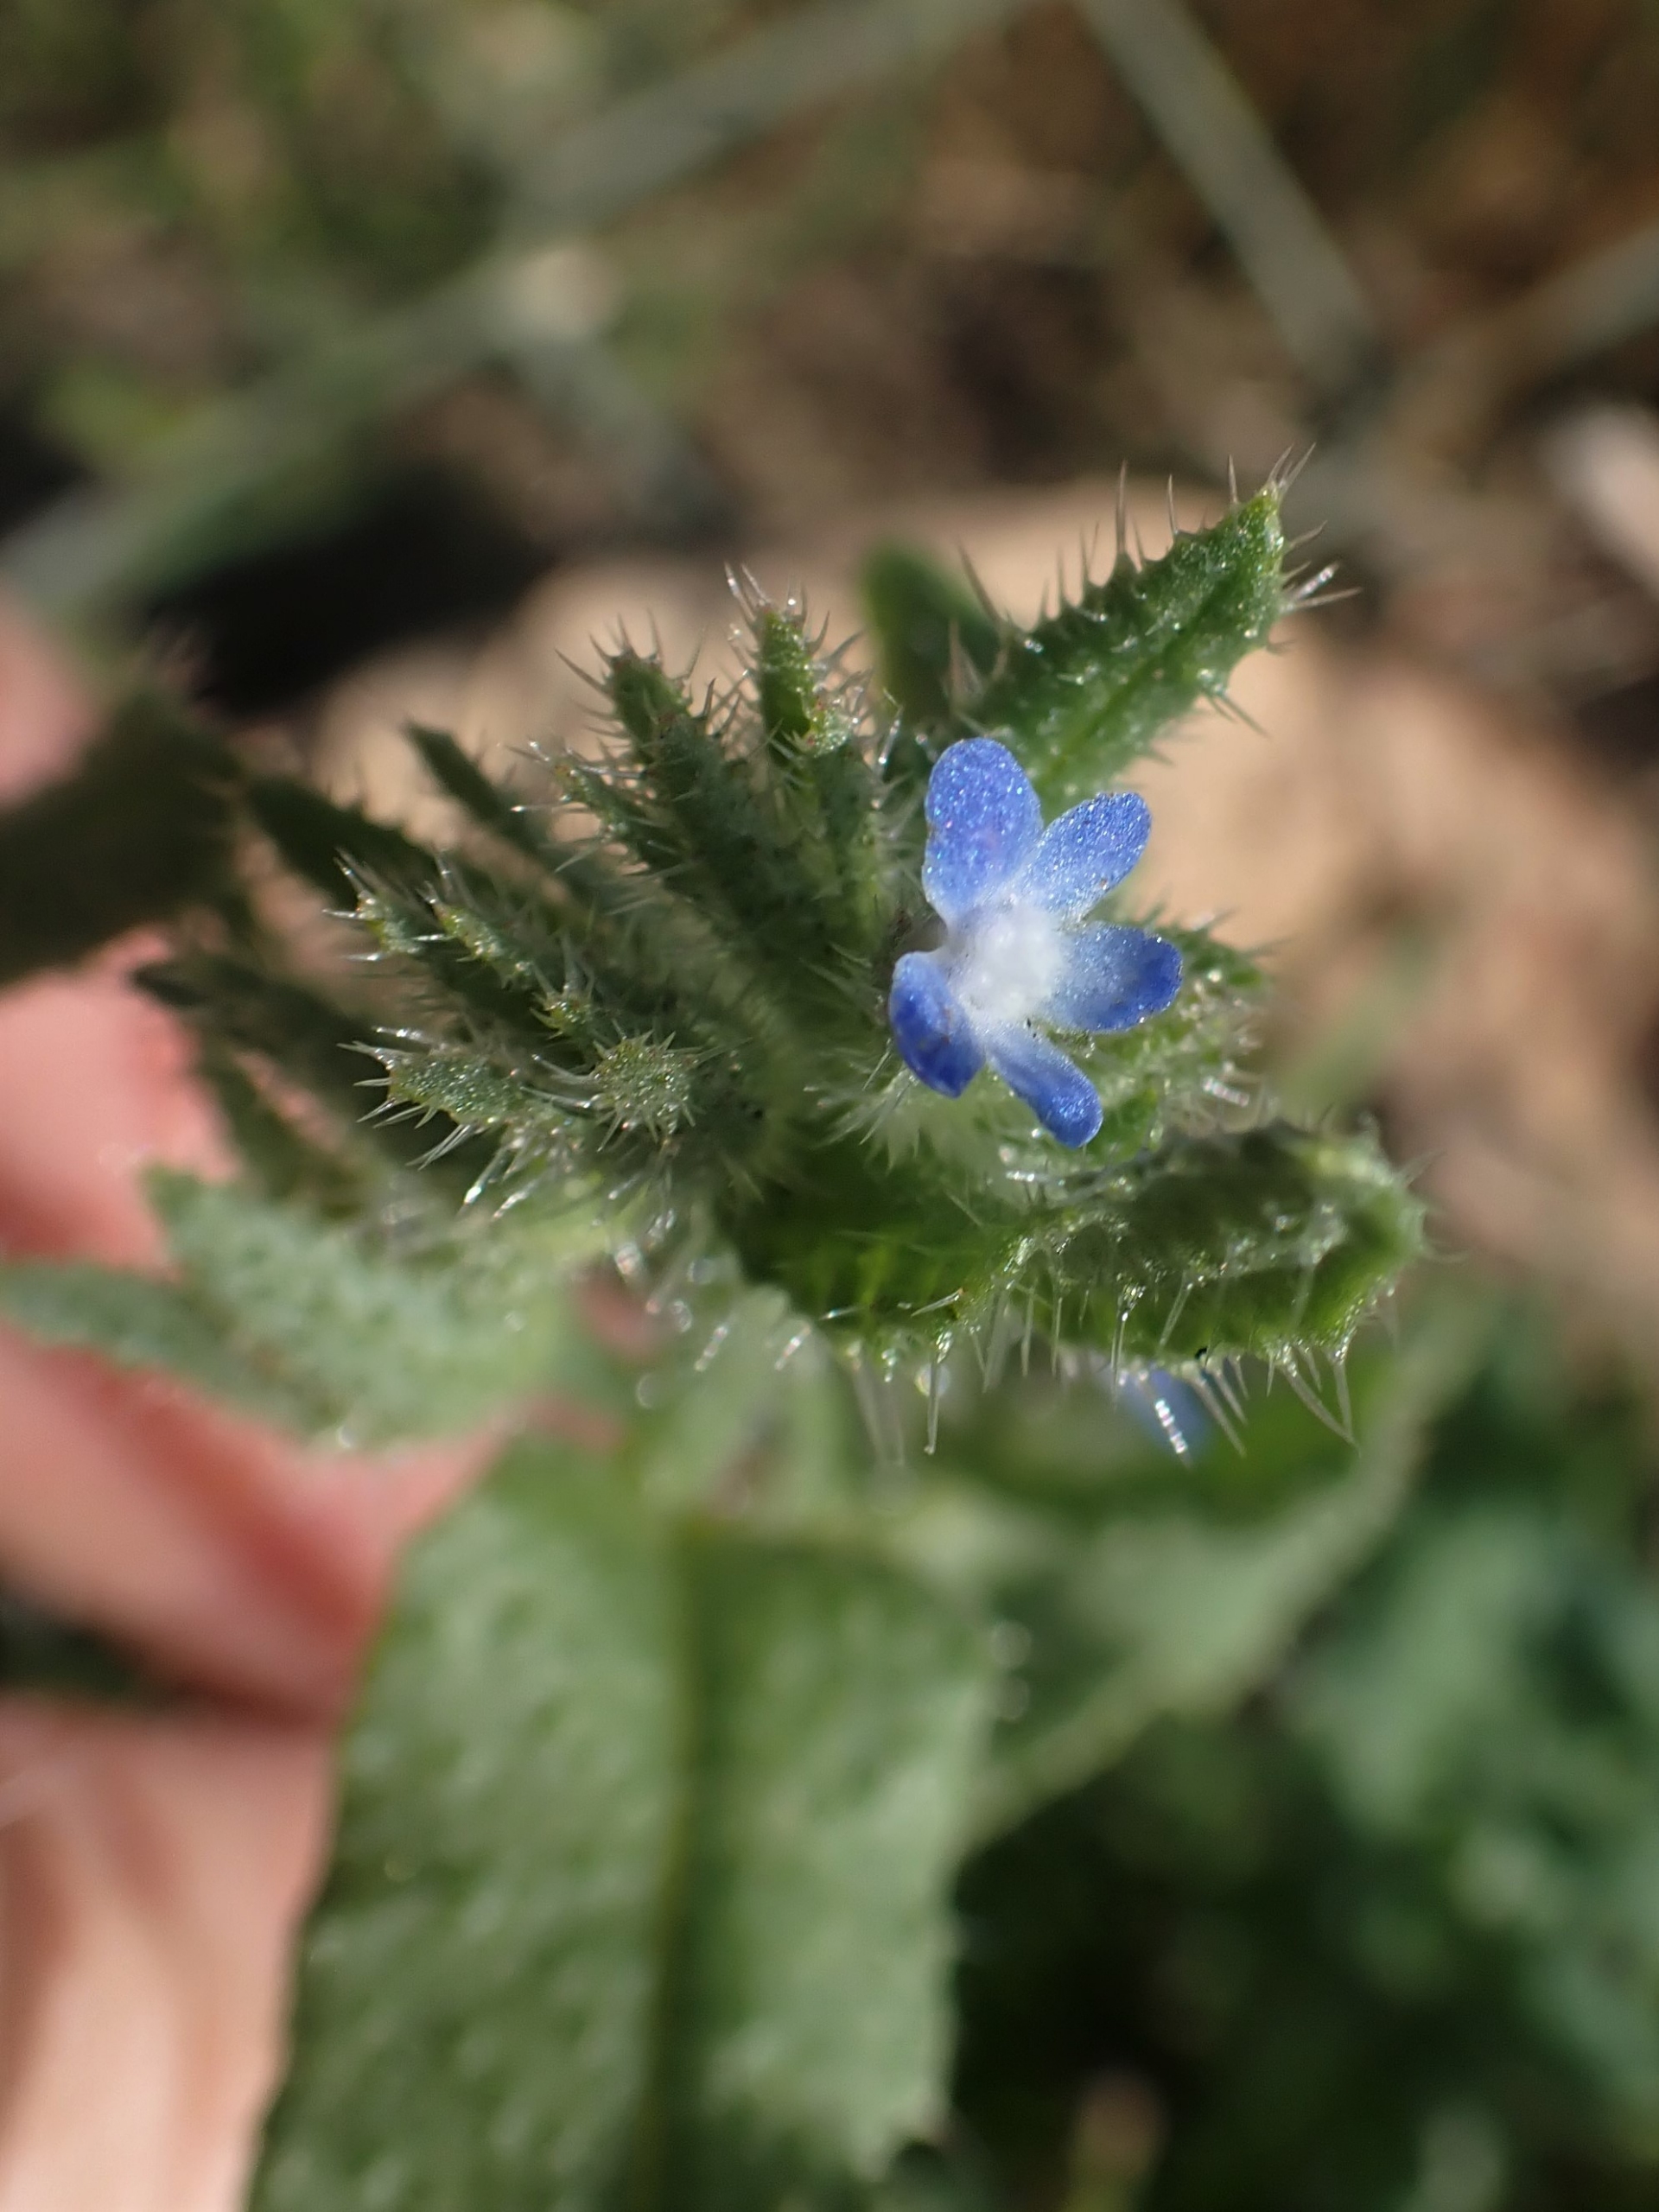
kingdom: Plantae
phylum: Tracheophyta
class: Magnoliopsida
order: Boraginales
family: Boraginaceae
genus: Lycopsis
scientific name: Lycopsis arvensis
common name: Krumhals
